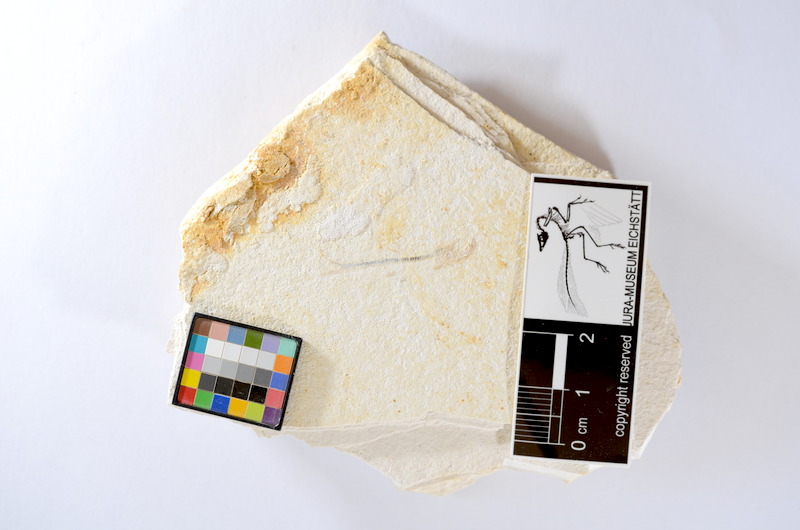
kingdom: Animalia
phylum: Chordata
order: Salmoniformes
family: Orthogonikleithridae
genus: Orthogonikleithrus
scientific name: Orthogonikleithrus hoelli
